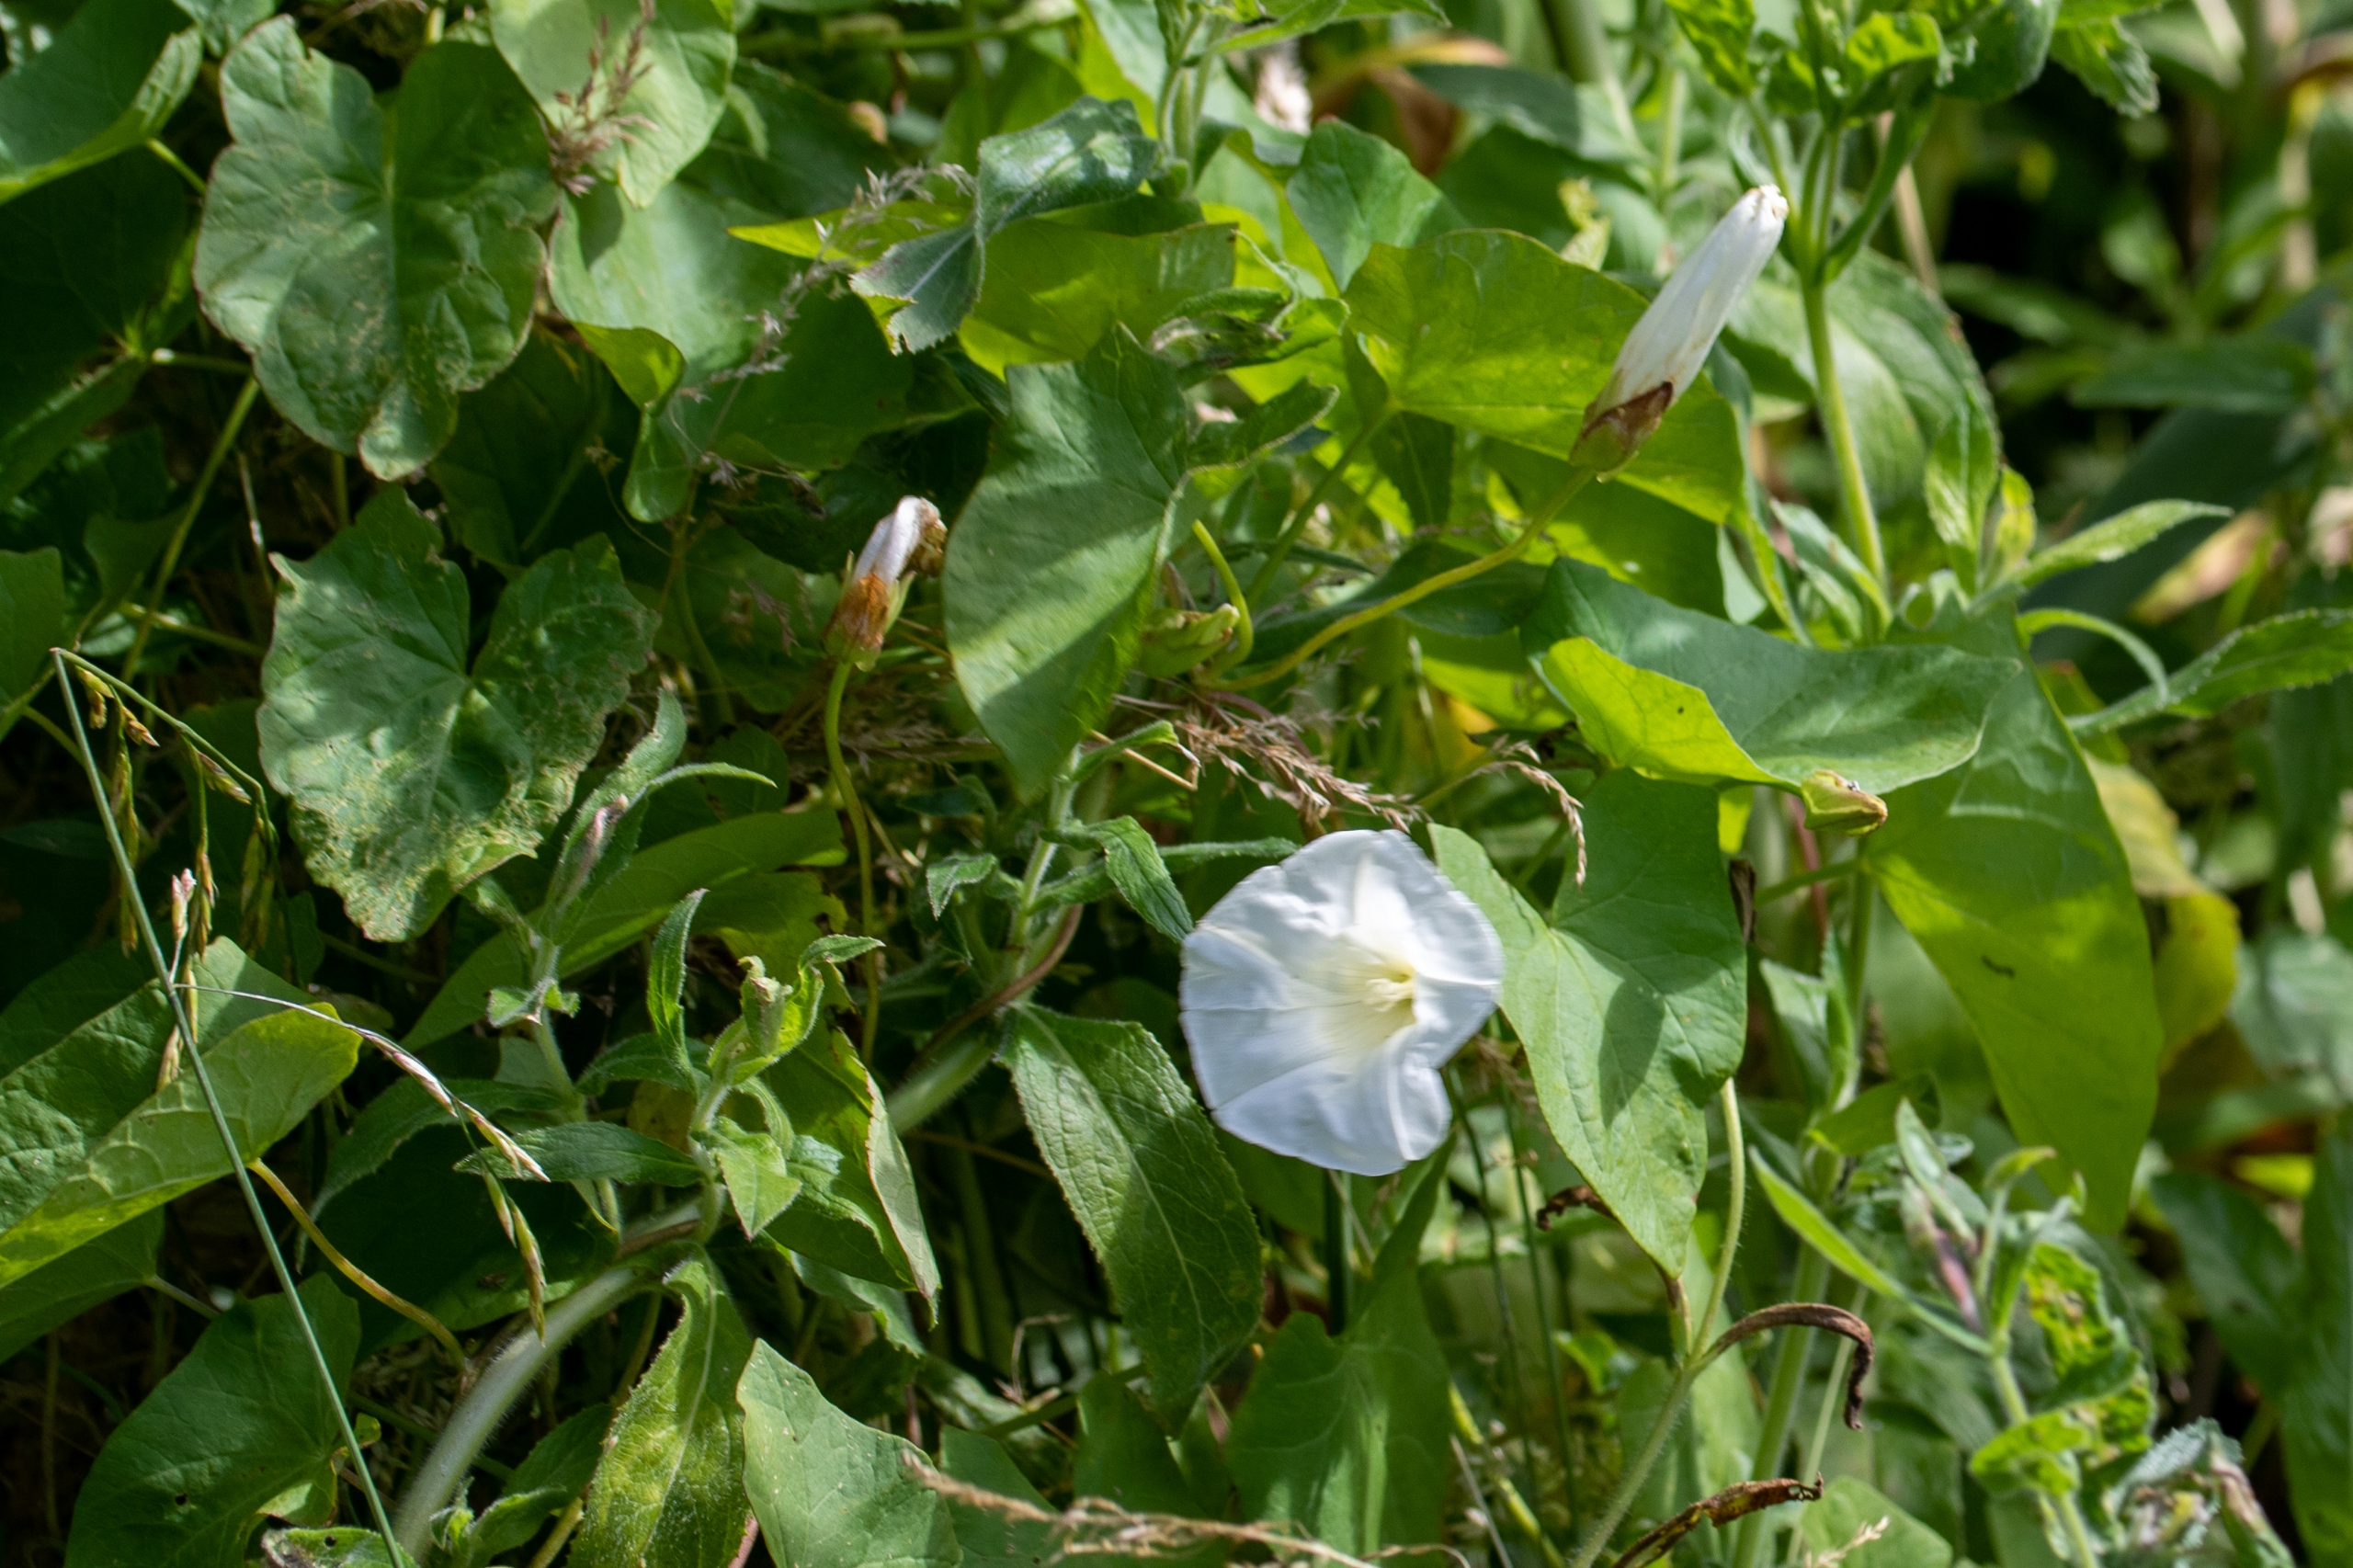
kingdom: Plantae
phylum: Tracheophyta
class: Magnoliopsida
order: Solanales
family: Convolvulaceae
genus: Calystegia
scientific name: Calystegia sepium
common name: Gærde-snerle
